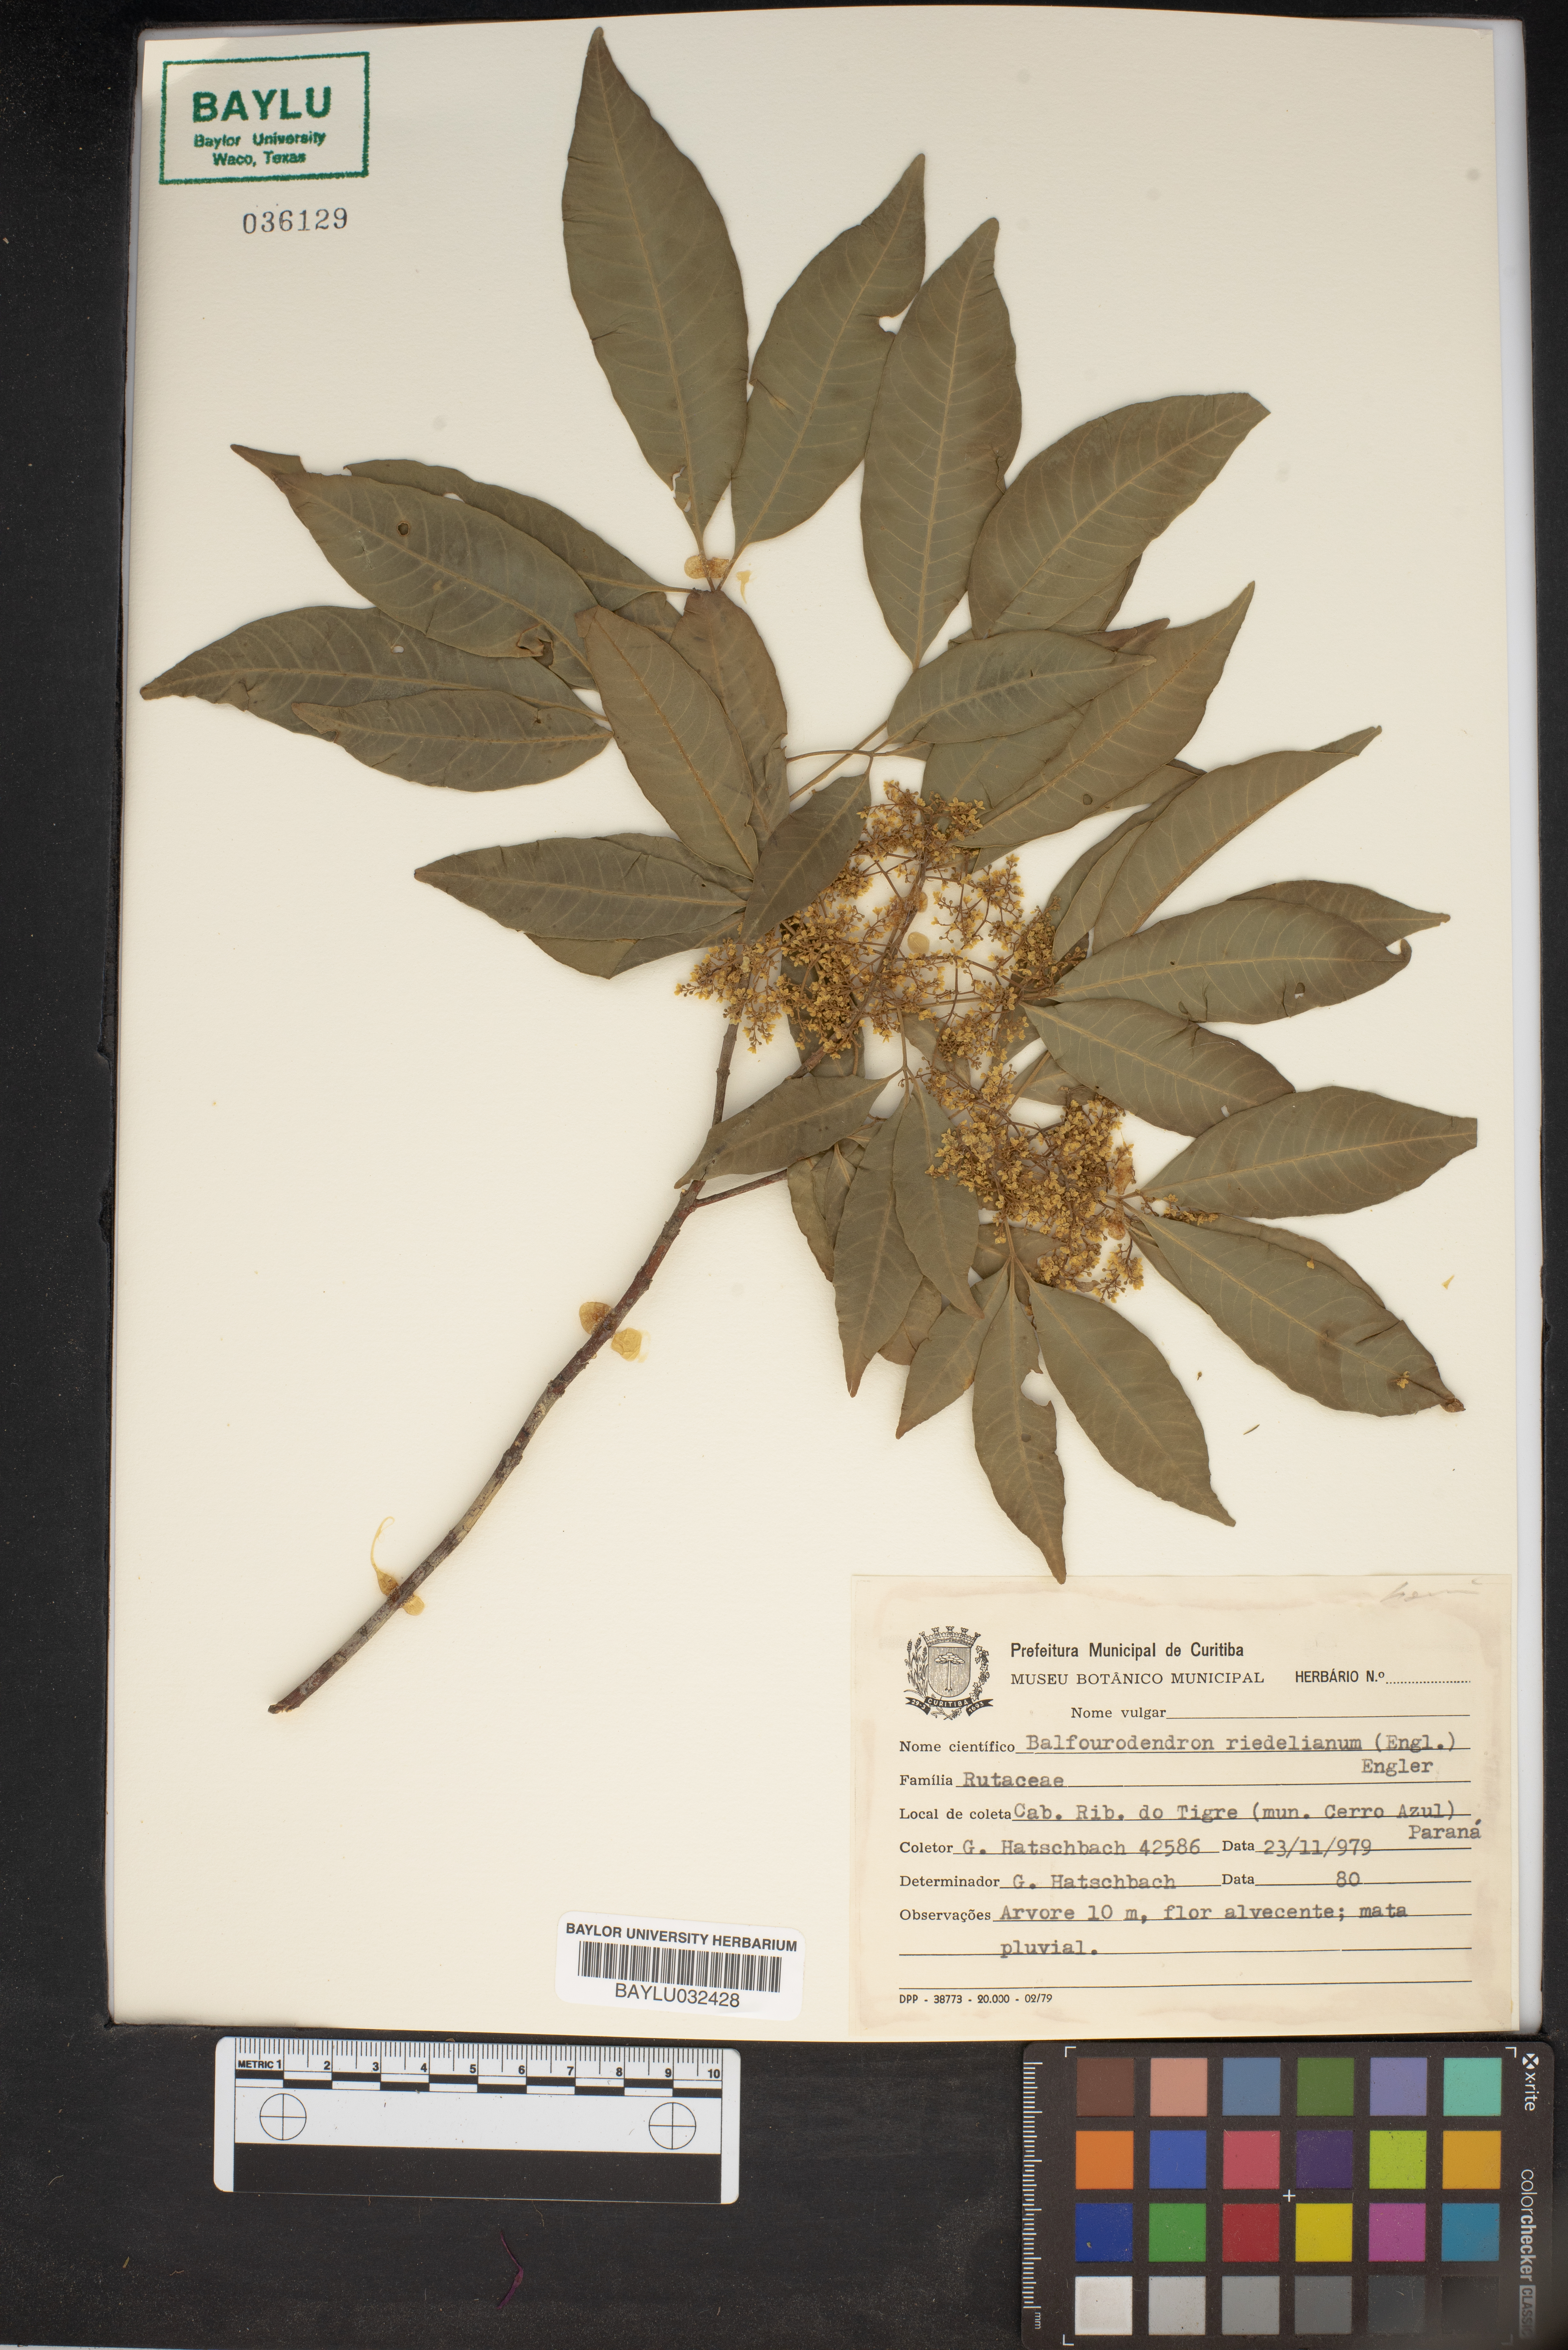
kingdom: Plantae
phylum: Tracheophyta
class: Magnoliopsida
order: Sapindales
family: Rutaceae
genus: Balfourodendron
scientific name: Balfourodendron riedelianum
